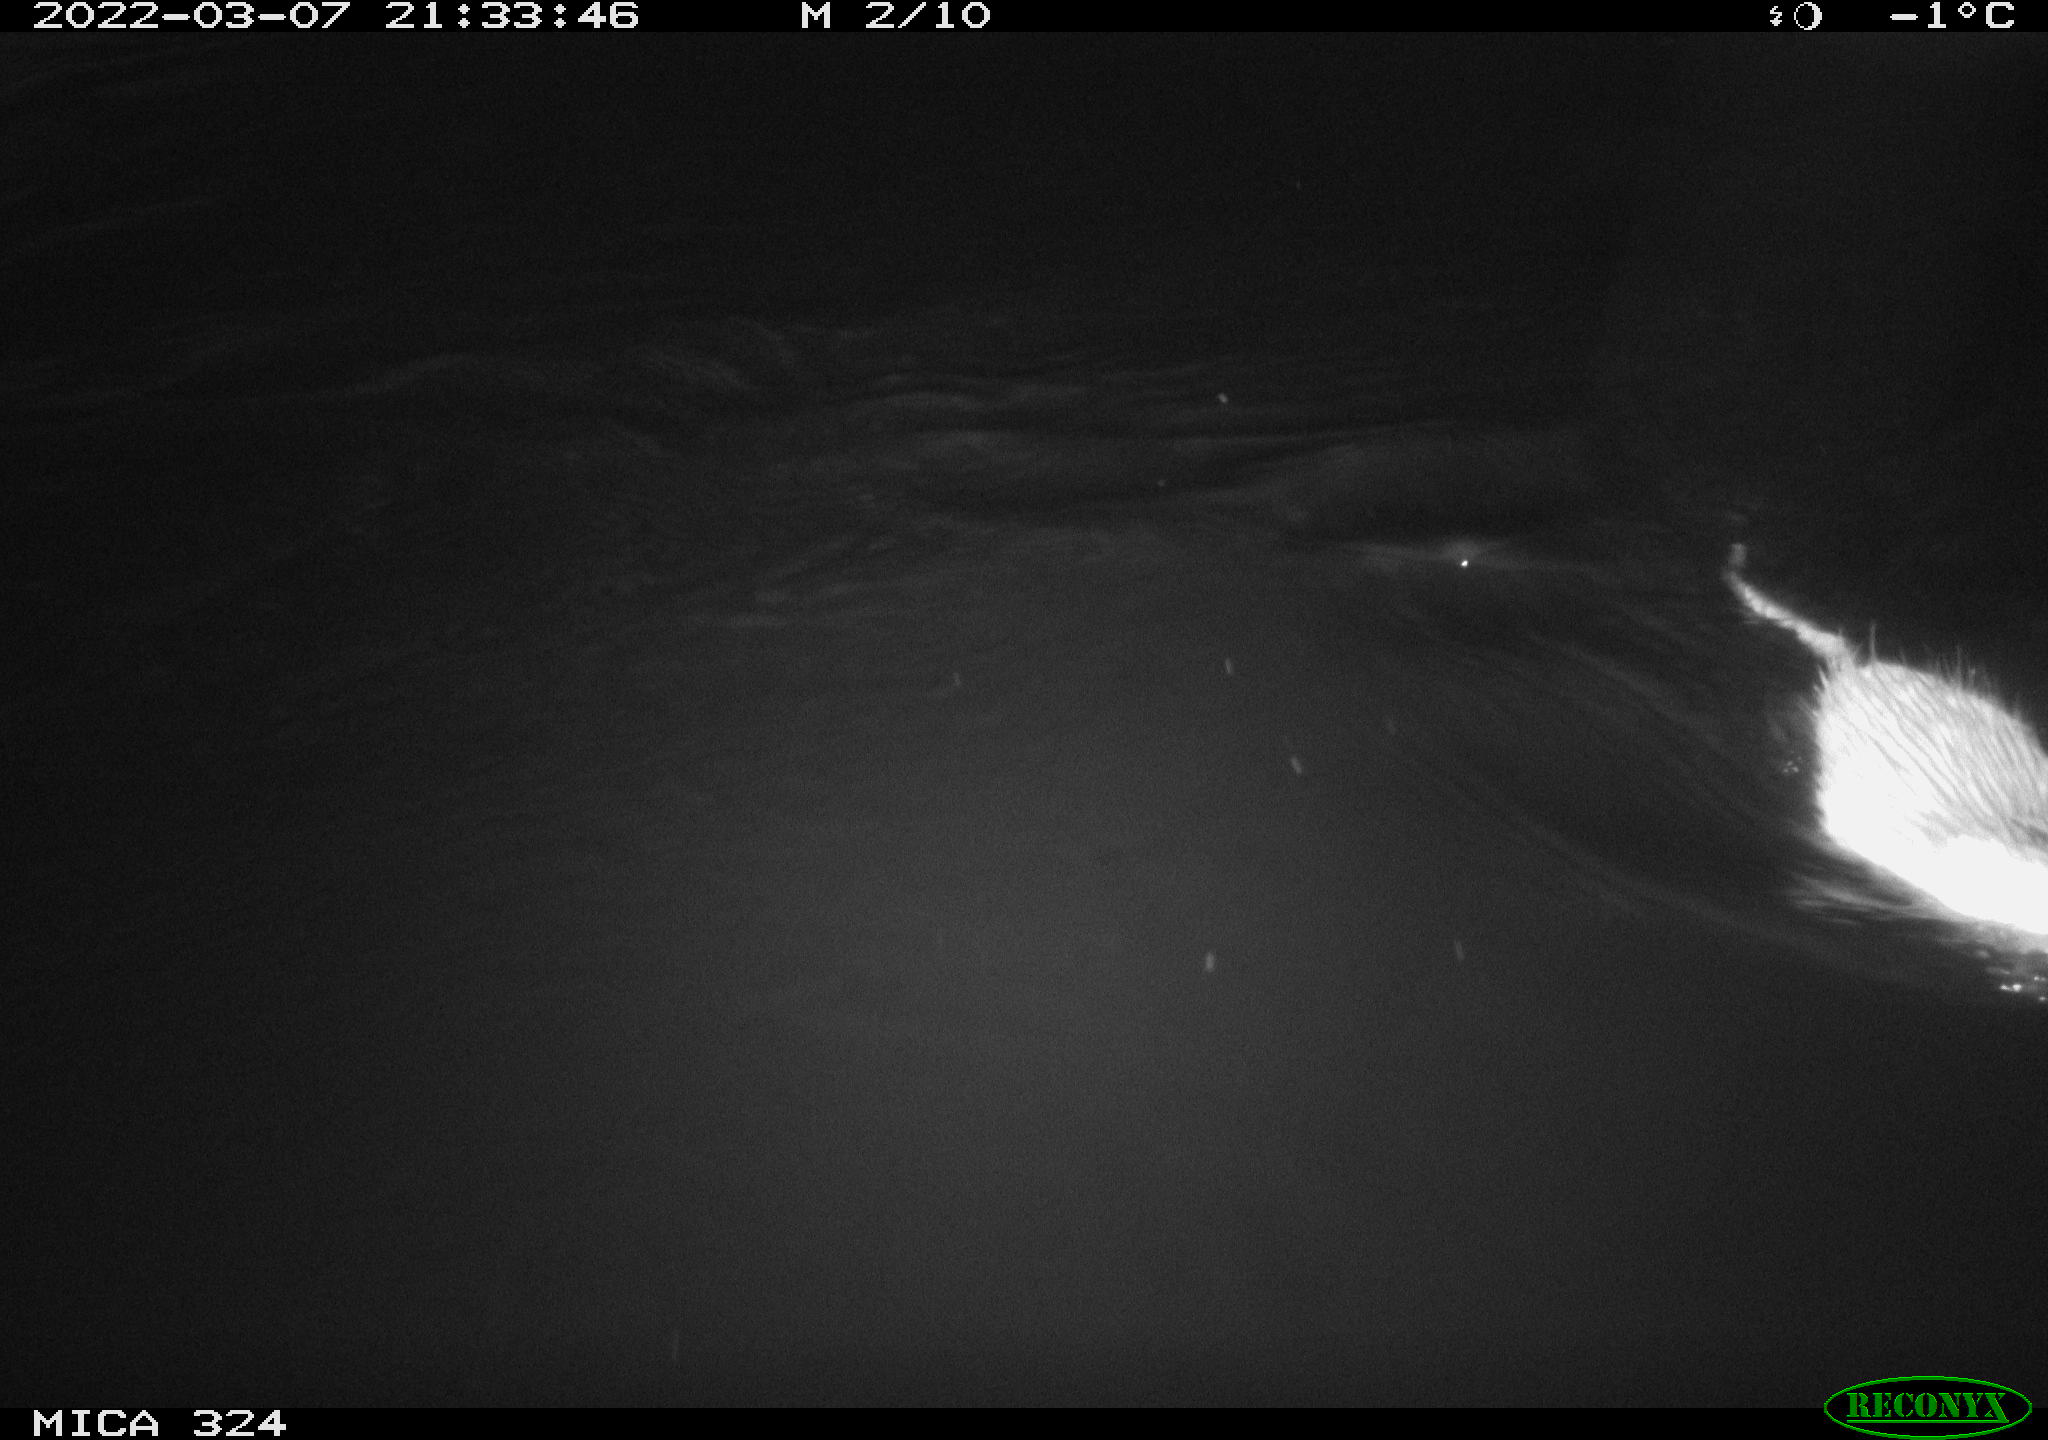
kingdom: Animalia
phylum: Chordata
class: Mammalia
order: Rodentia
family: Cricetidae
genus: Ondatra
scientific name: Ondatra zibethicus
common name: Muskrat
